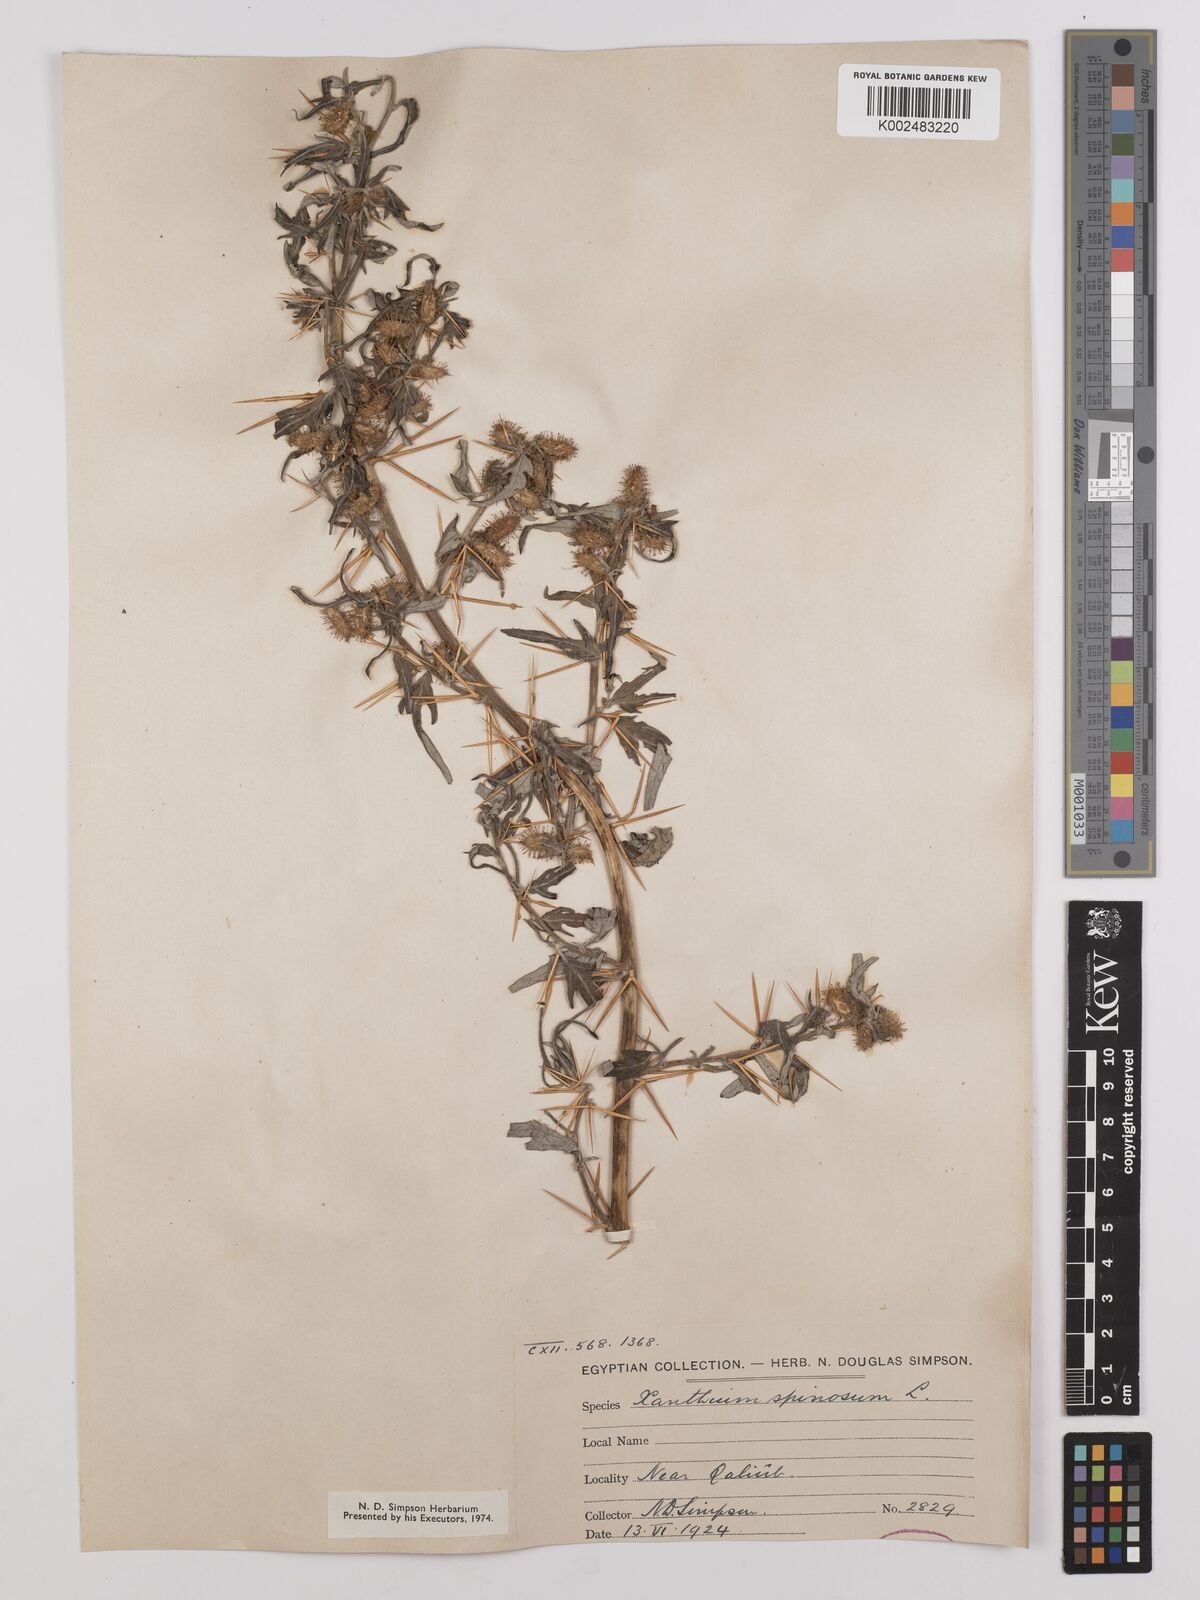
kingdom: Plantae
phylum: Tracheophyta
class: Magnoliopsida
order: Asterales
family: Asteraceae
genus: Xanthium
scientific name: Xanthium spinosum
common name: Spiny cocklebur
